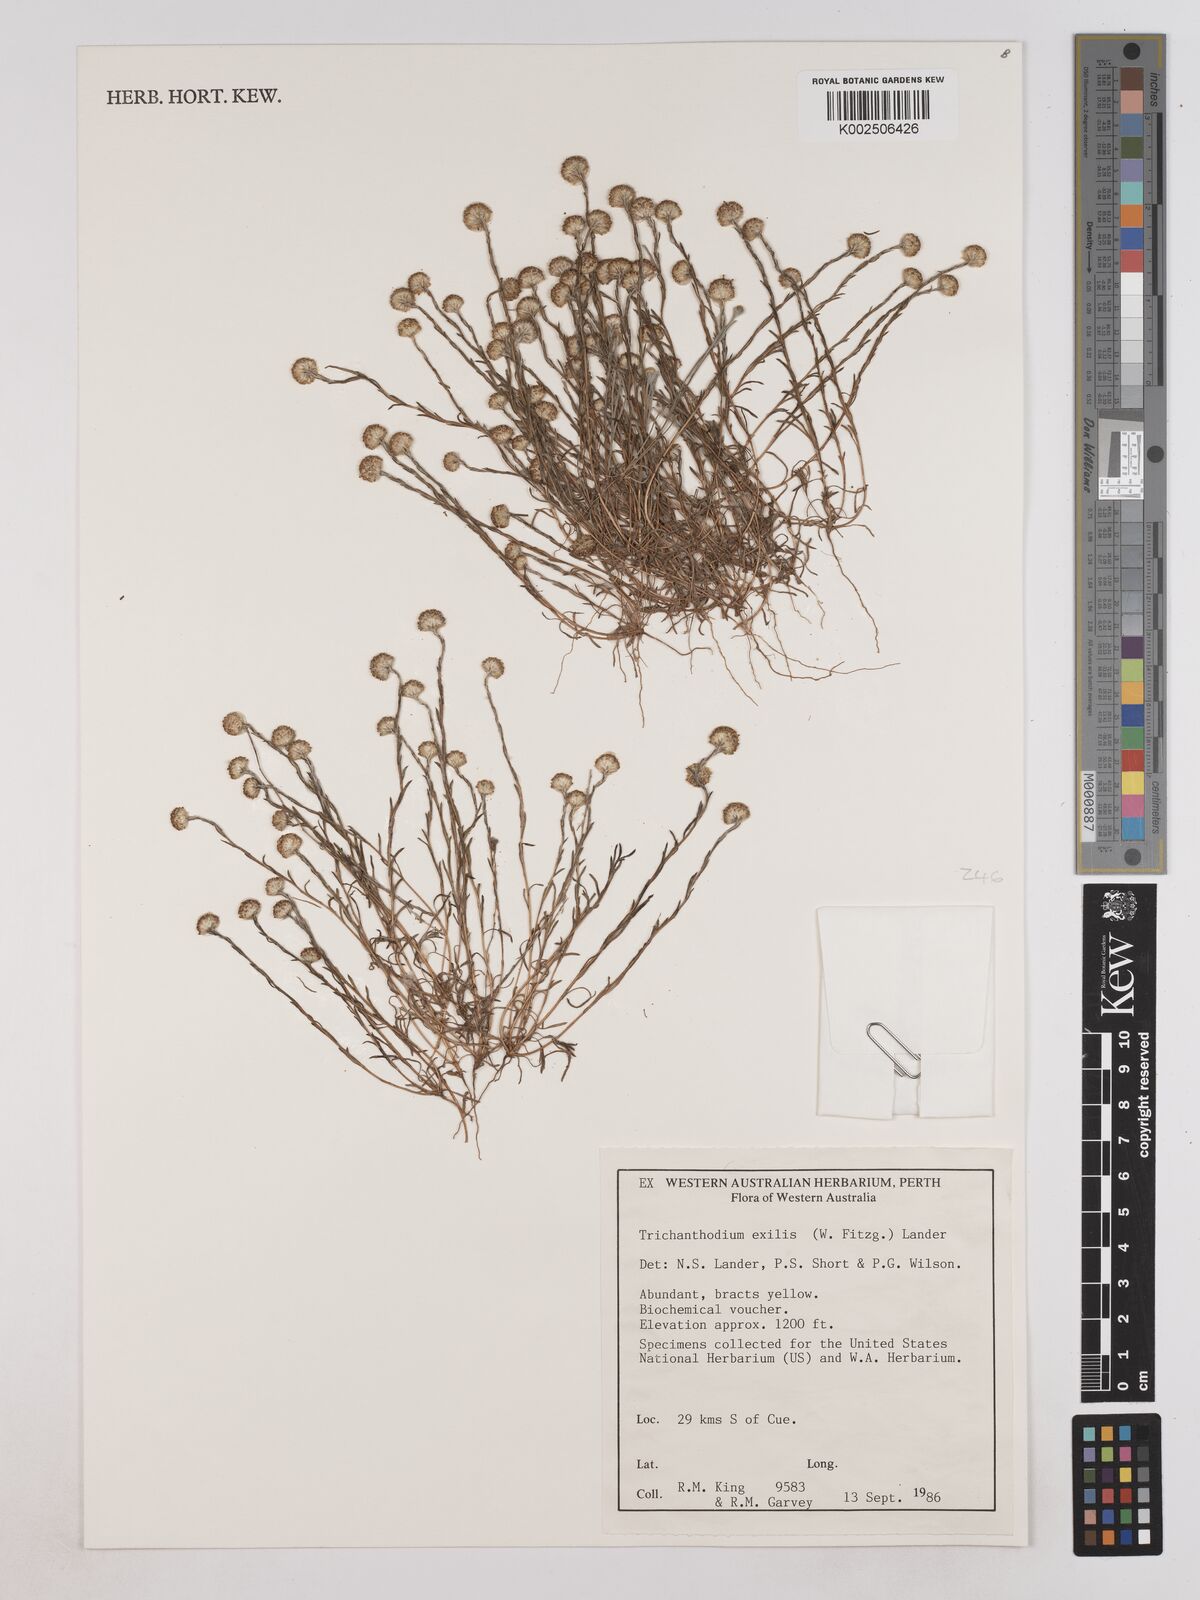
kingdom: Plantae
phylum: Tracheophyta
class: Magnoliopsida
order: Asterales
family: Asteraceae
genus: Trichanthodium
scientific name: Trichanthodium exilis
